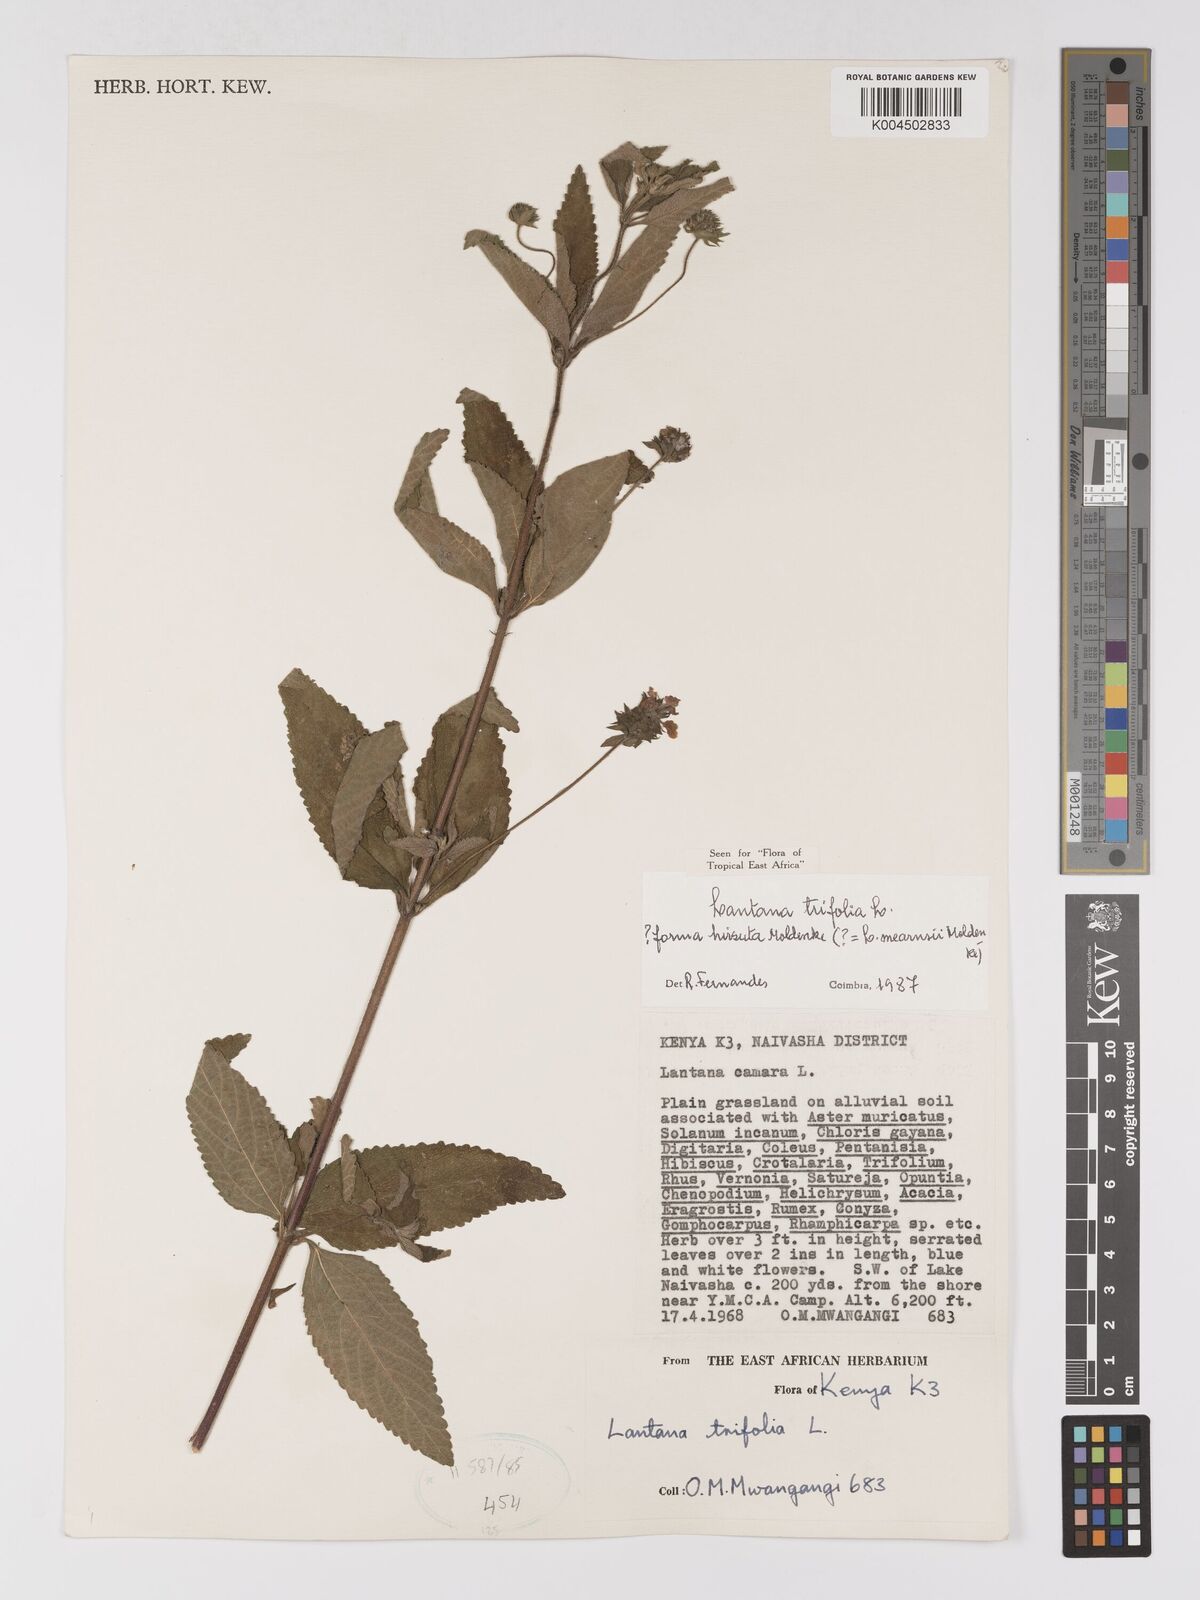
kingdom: Plantae
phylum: Tracheophyta
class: Magnoliopsida
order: Lamiales
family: Verbenaceae
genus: Lantana
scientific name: Lantana trifolia
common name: Sweet-sage
